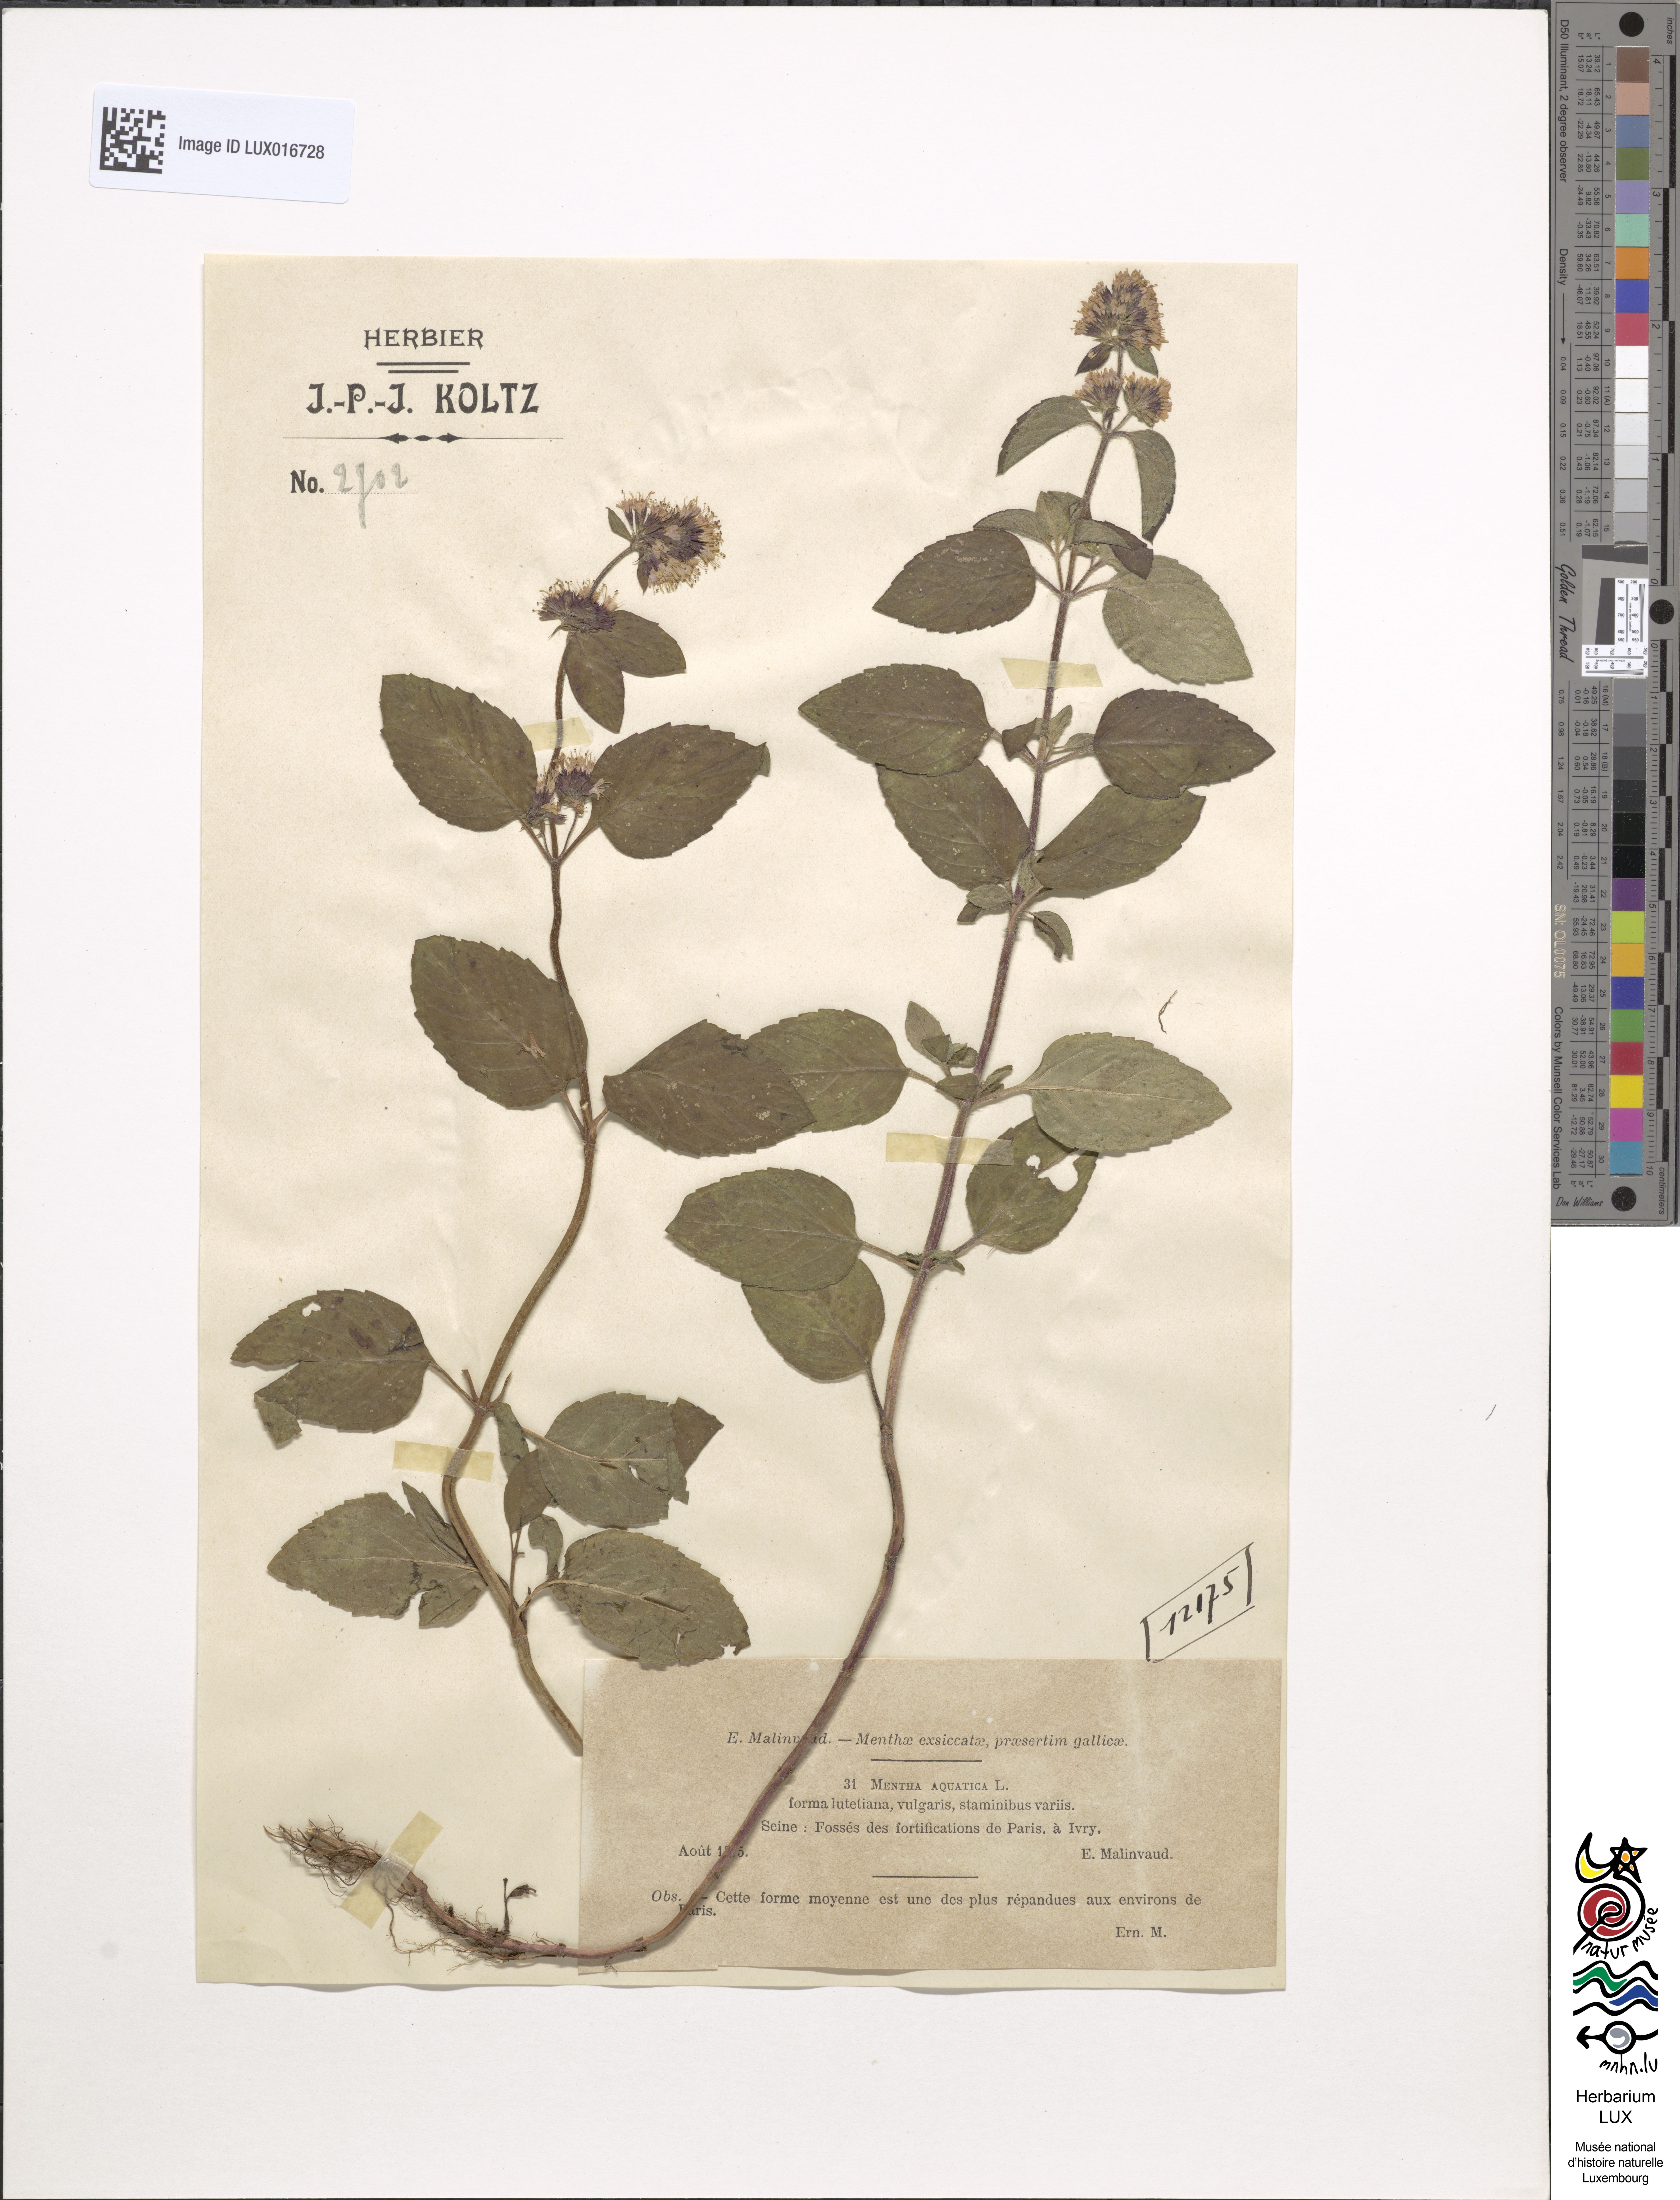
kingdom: Plantae
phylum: Tracheophyta
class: Magnoliopsida
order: Lamiales
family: Lamiaceae
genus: Mentha
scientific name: Mentha aquatica
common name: Water mint
